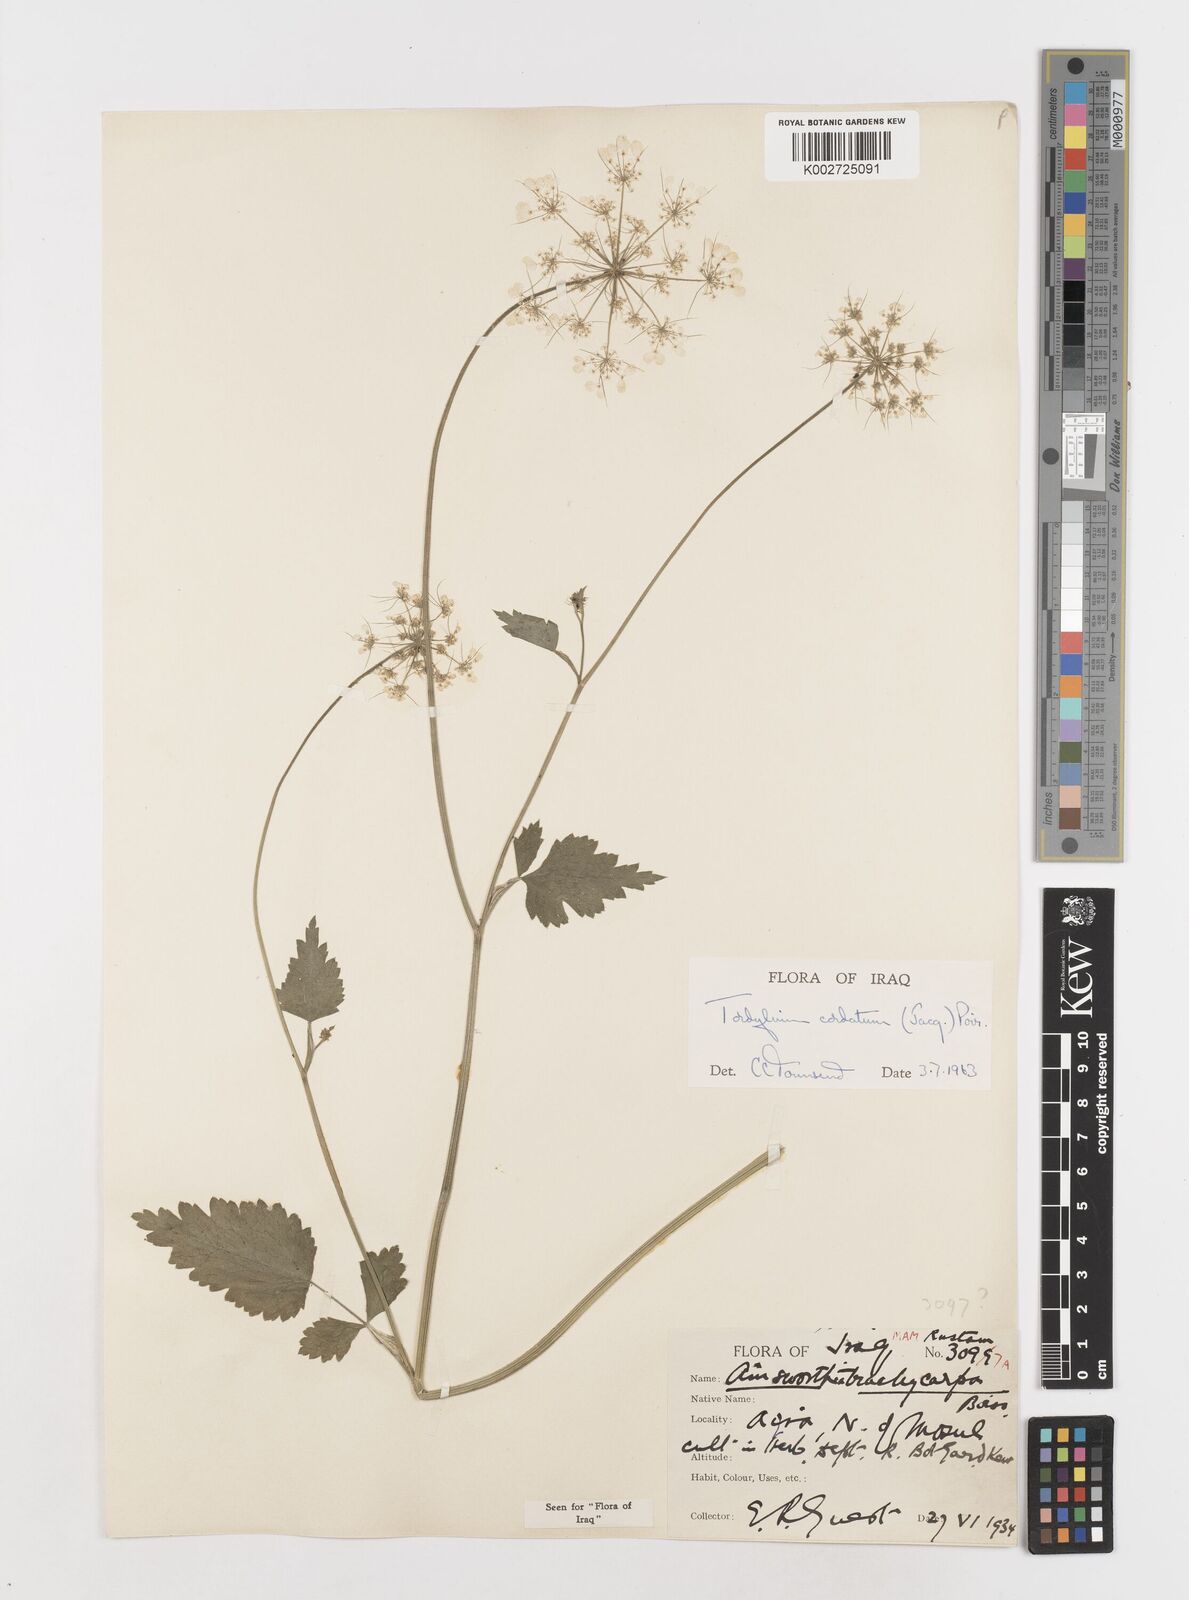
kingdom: Plantae
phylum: Tracheophyta
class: Magnoliopsida
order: Apiales
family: Apiaceae
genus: Ainsworthia
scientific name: Ainsworthia cordata
